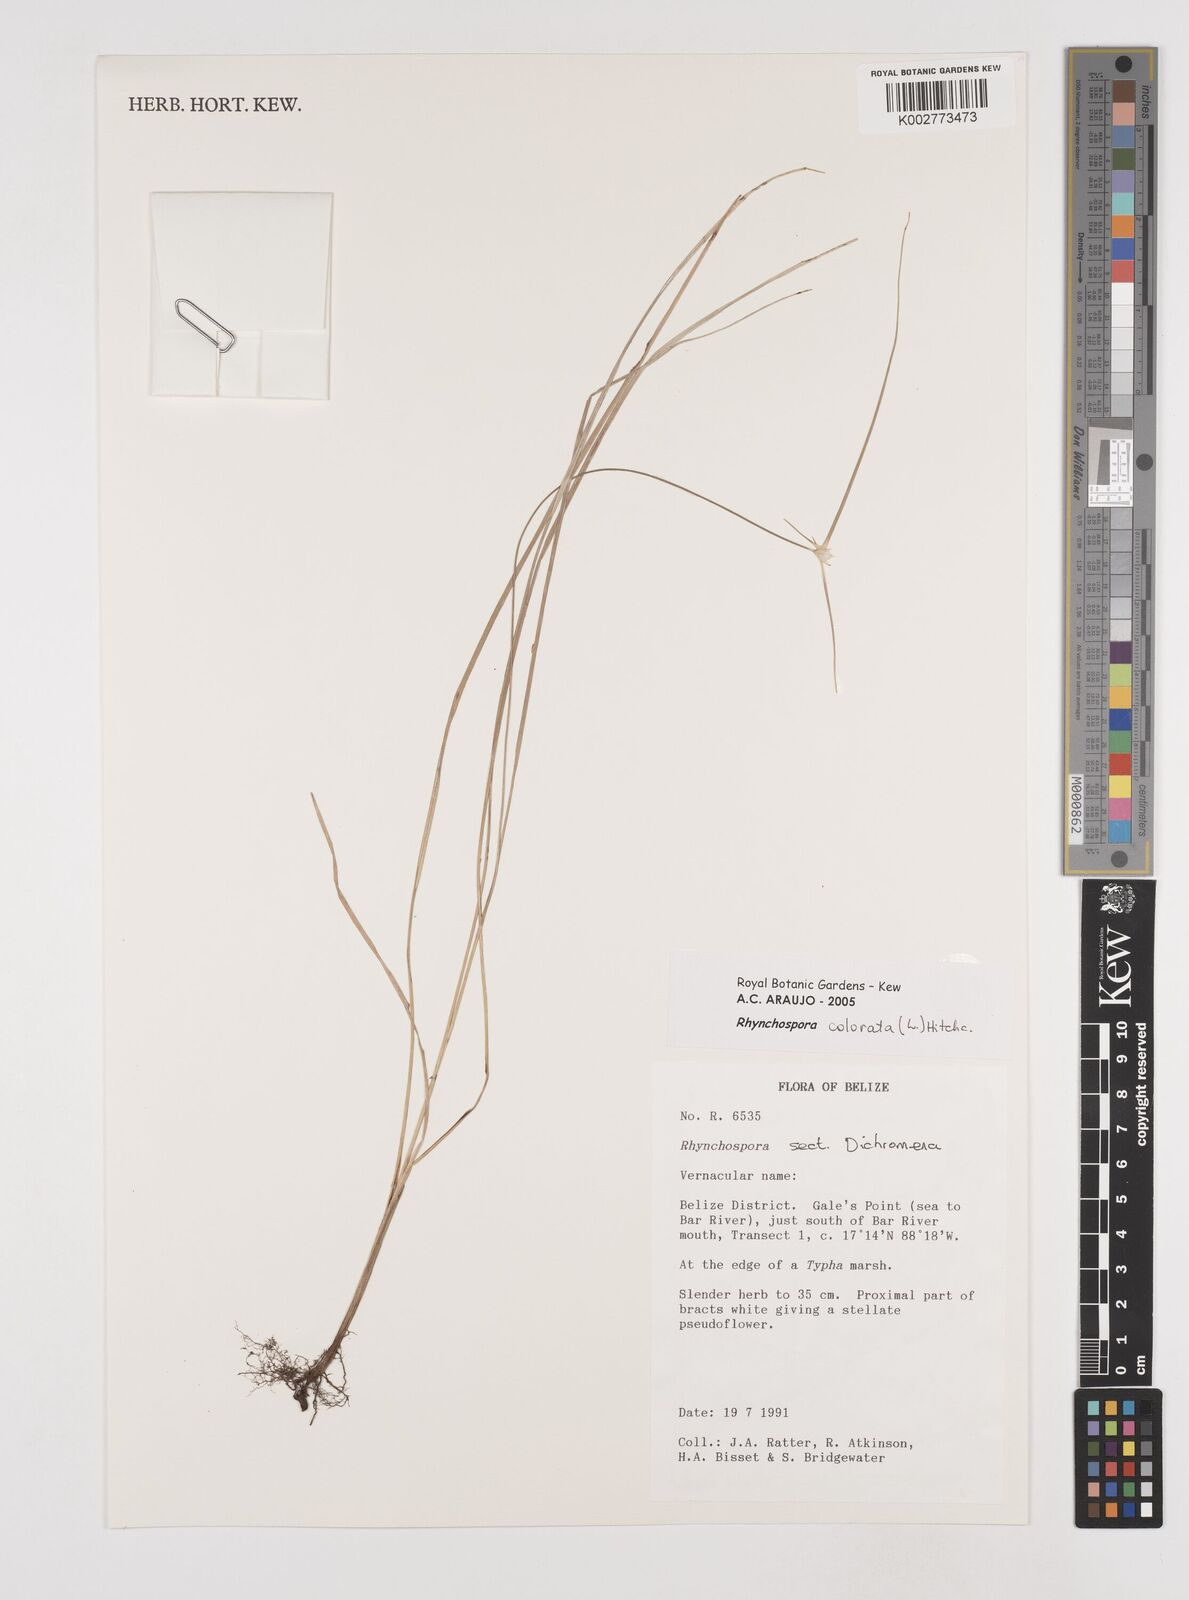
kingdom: Plantae
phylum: Tracheophyta
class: Liliopsida
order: Poales
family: Cyperaceae
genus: Rhynchospora
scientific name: Rhynchospora colorata
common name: Star sedge
